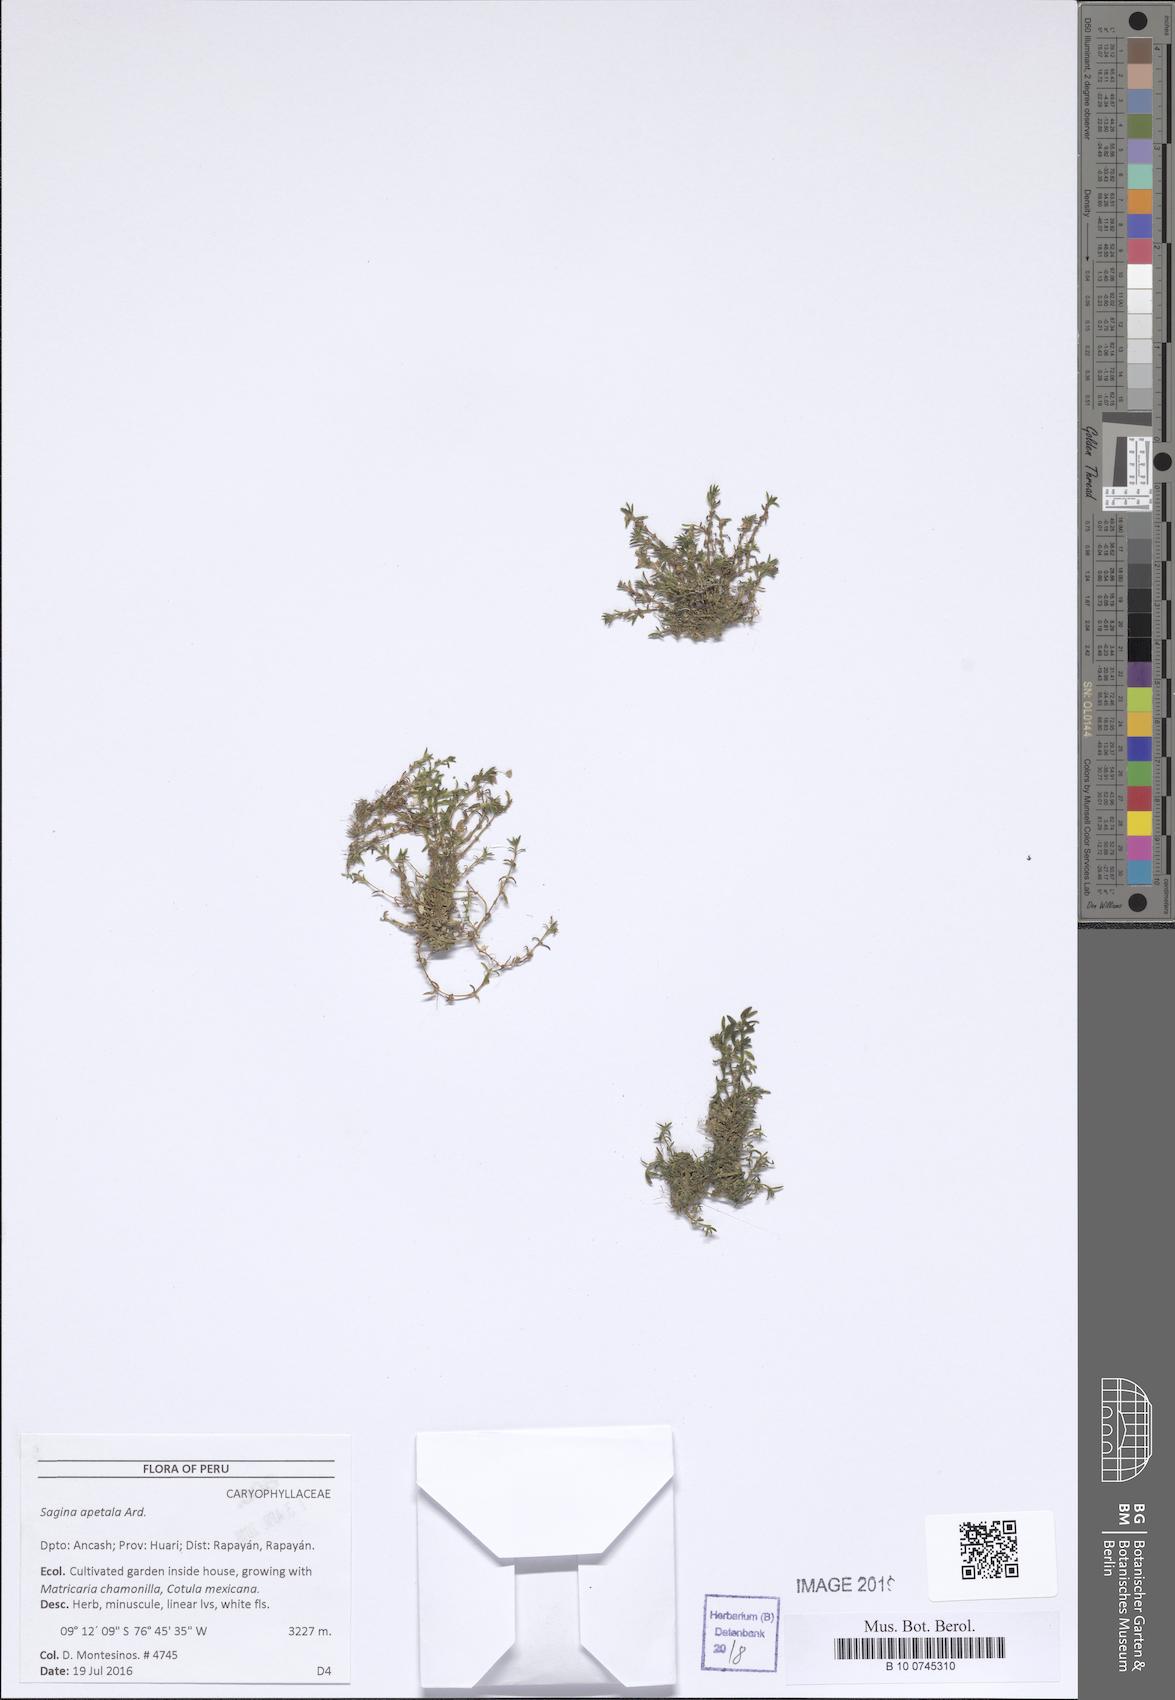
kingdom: Plantae
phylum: Tracheophyta
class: Magnoliopsida
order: Caryophyllales
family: Caryophyllaceae
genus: Sagina
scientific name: Sagina apetala
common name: Annual pearlwort
